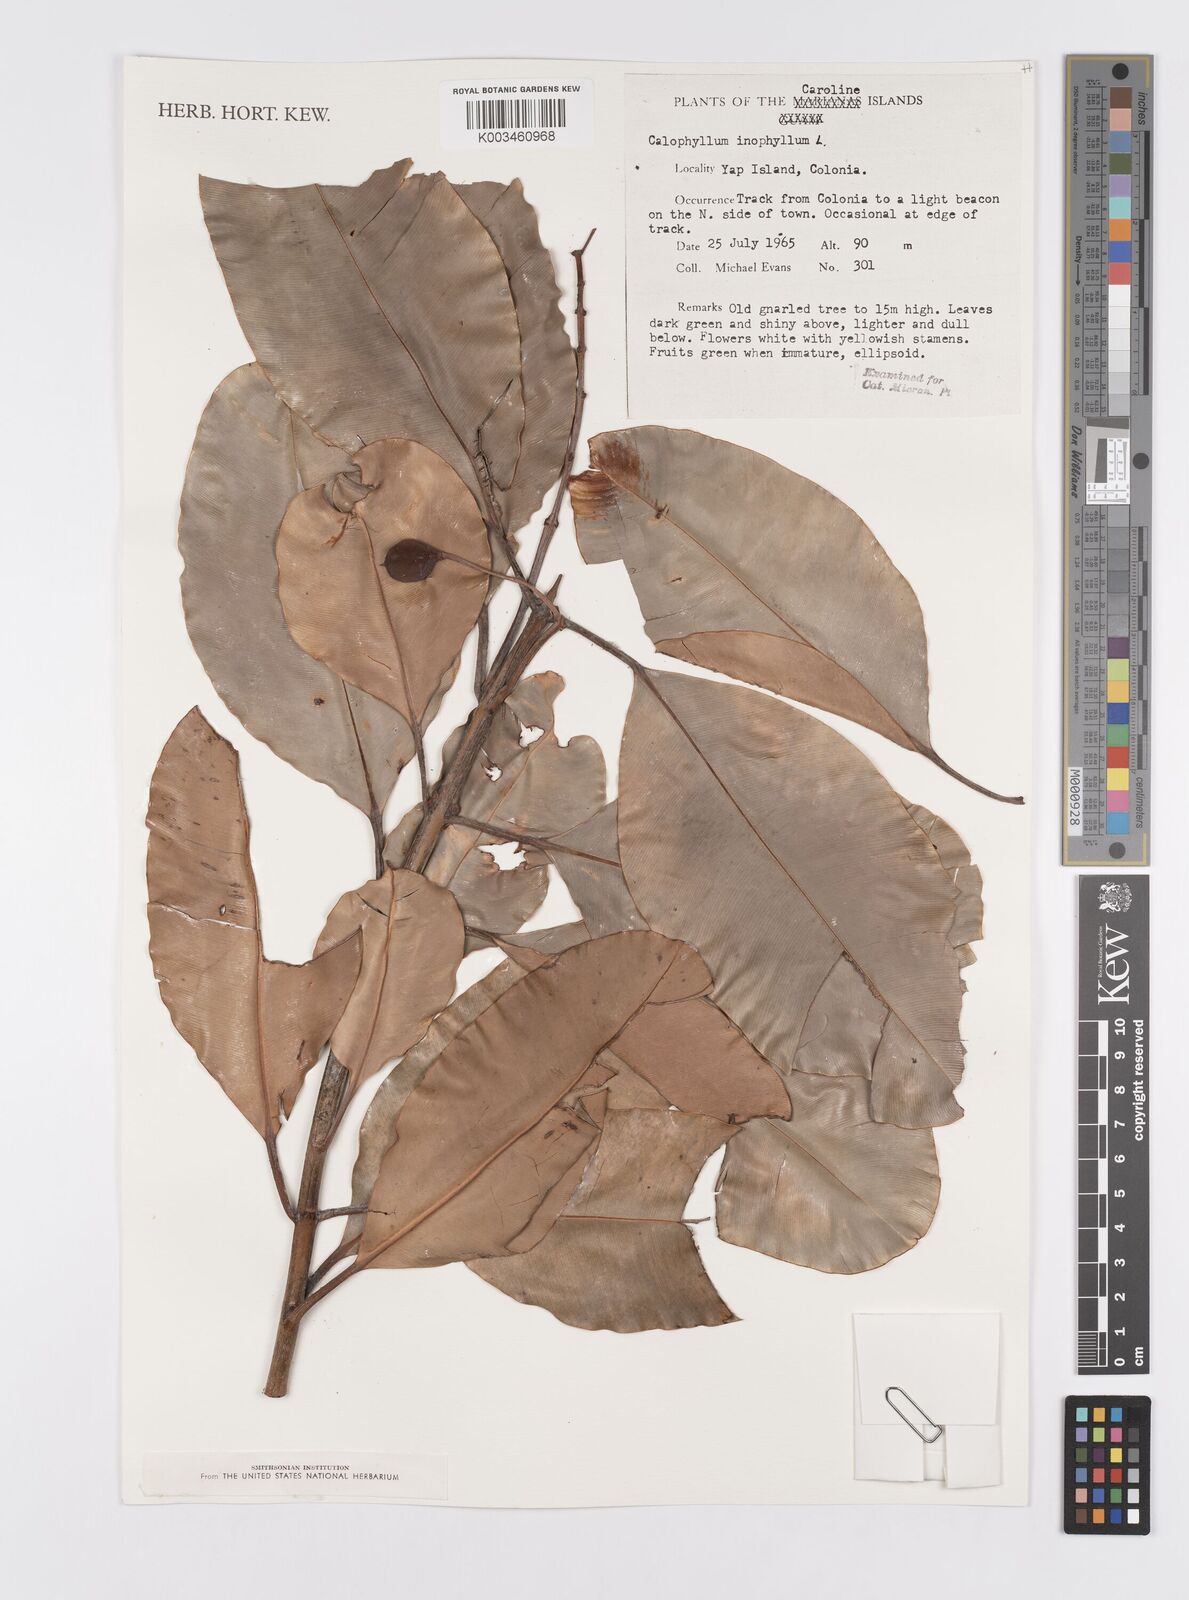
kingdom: Plantae
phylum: Tracheophyta
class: Magnoliopsida
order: Malpighiales
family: Calophyllaceae
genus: Calophyllum
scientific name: Calophyllum inophyllum
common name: Alexandrian laurel
